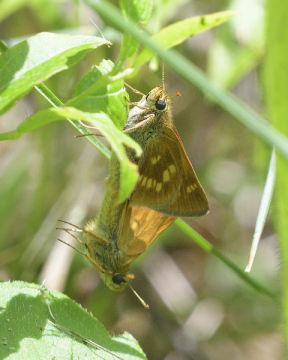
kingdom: Animalia
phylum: Arthropoda
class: Insecta
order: Lepidoptera
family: Hesperiidae
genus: Polites
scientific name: Polites
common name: Long Dash Skipper
